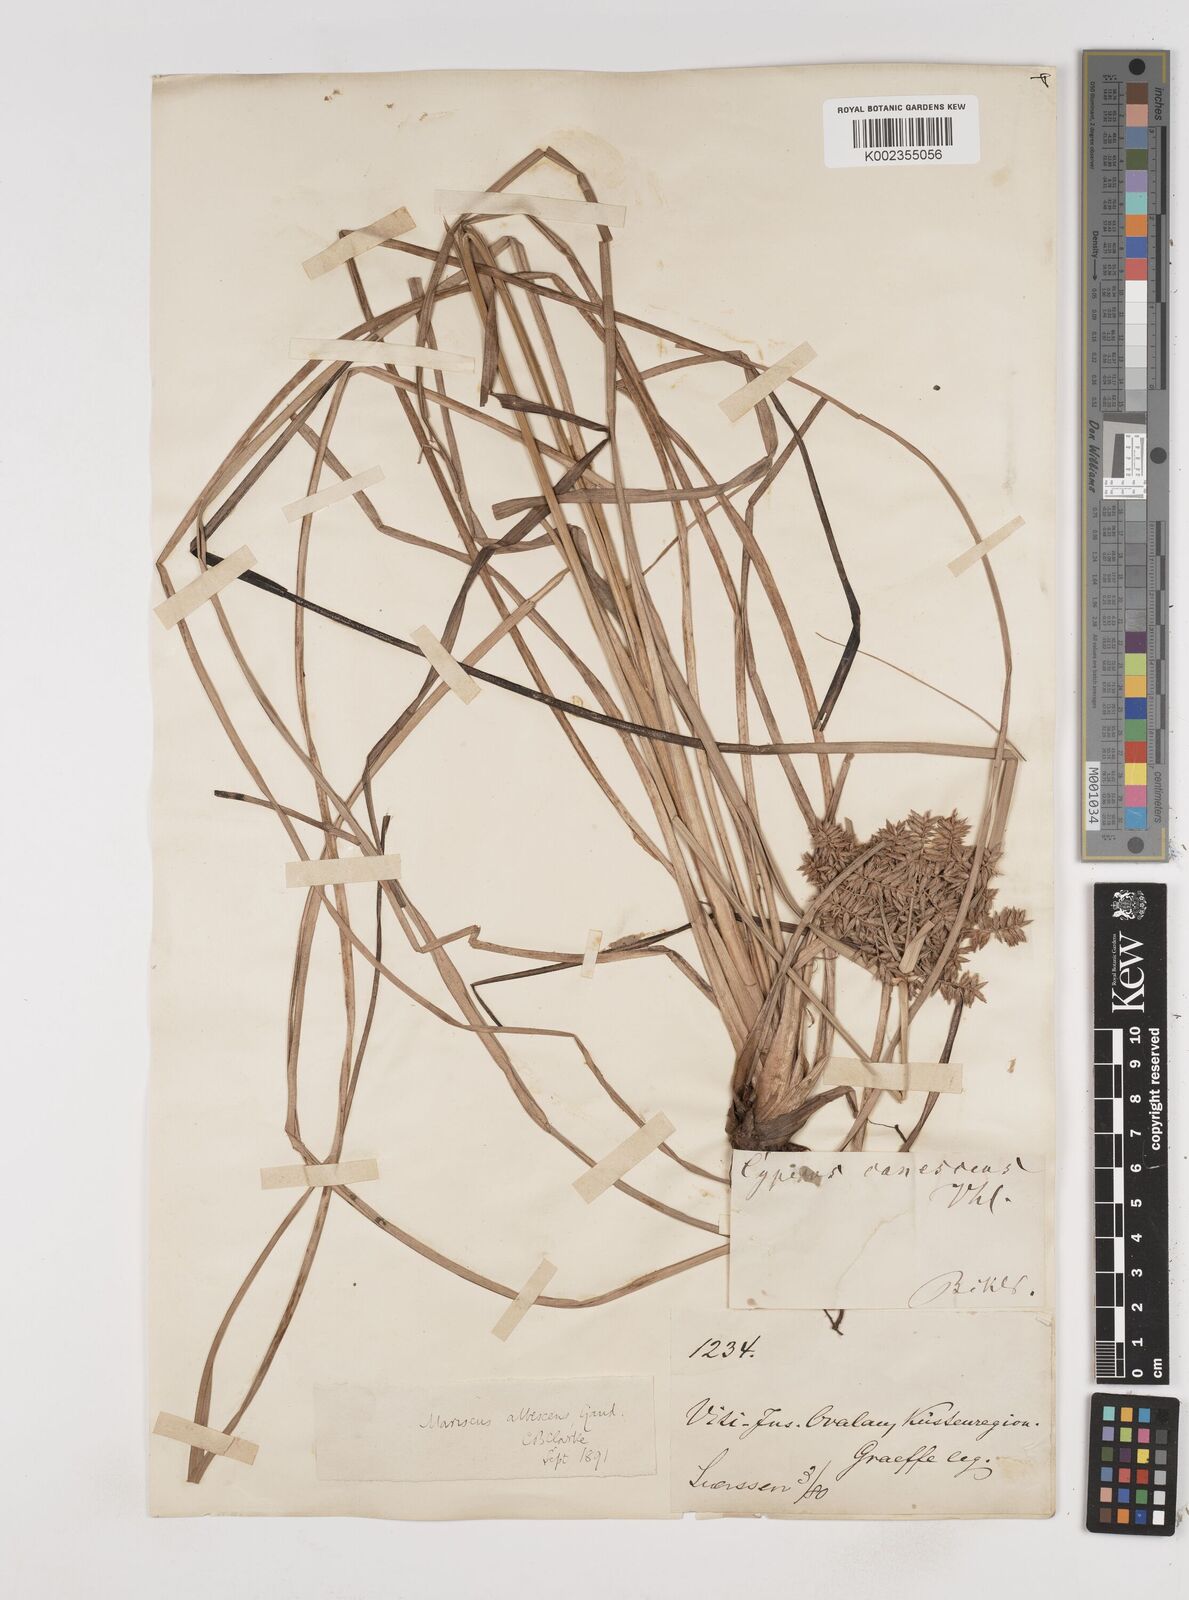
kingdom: Plantae
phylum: Tracheophyta
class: Liliopsida
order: Poales
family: Cyperaceae
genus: Cyperus
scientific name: Cyperus javanicus
